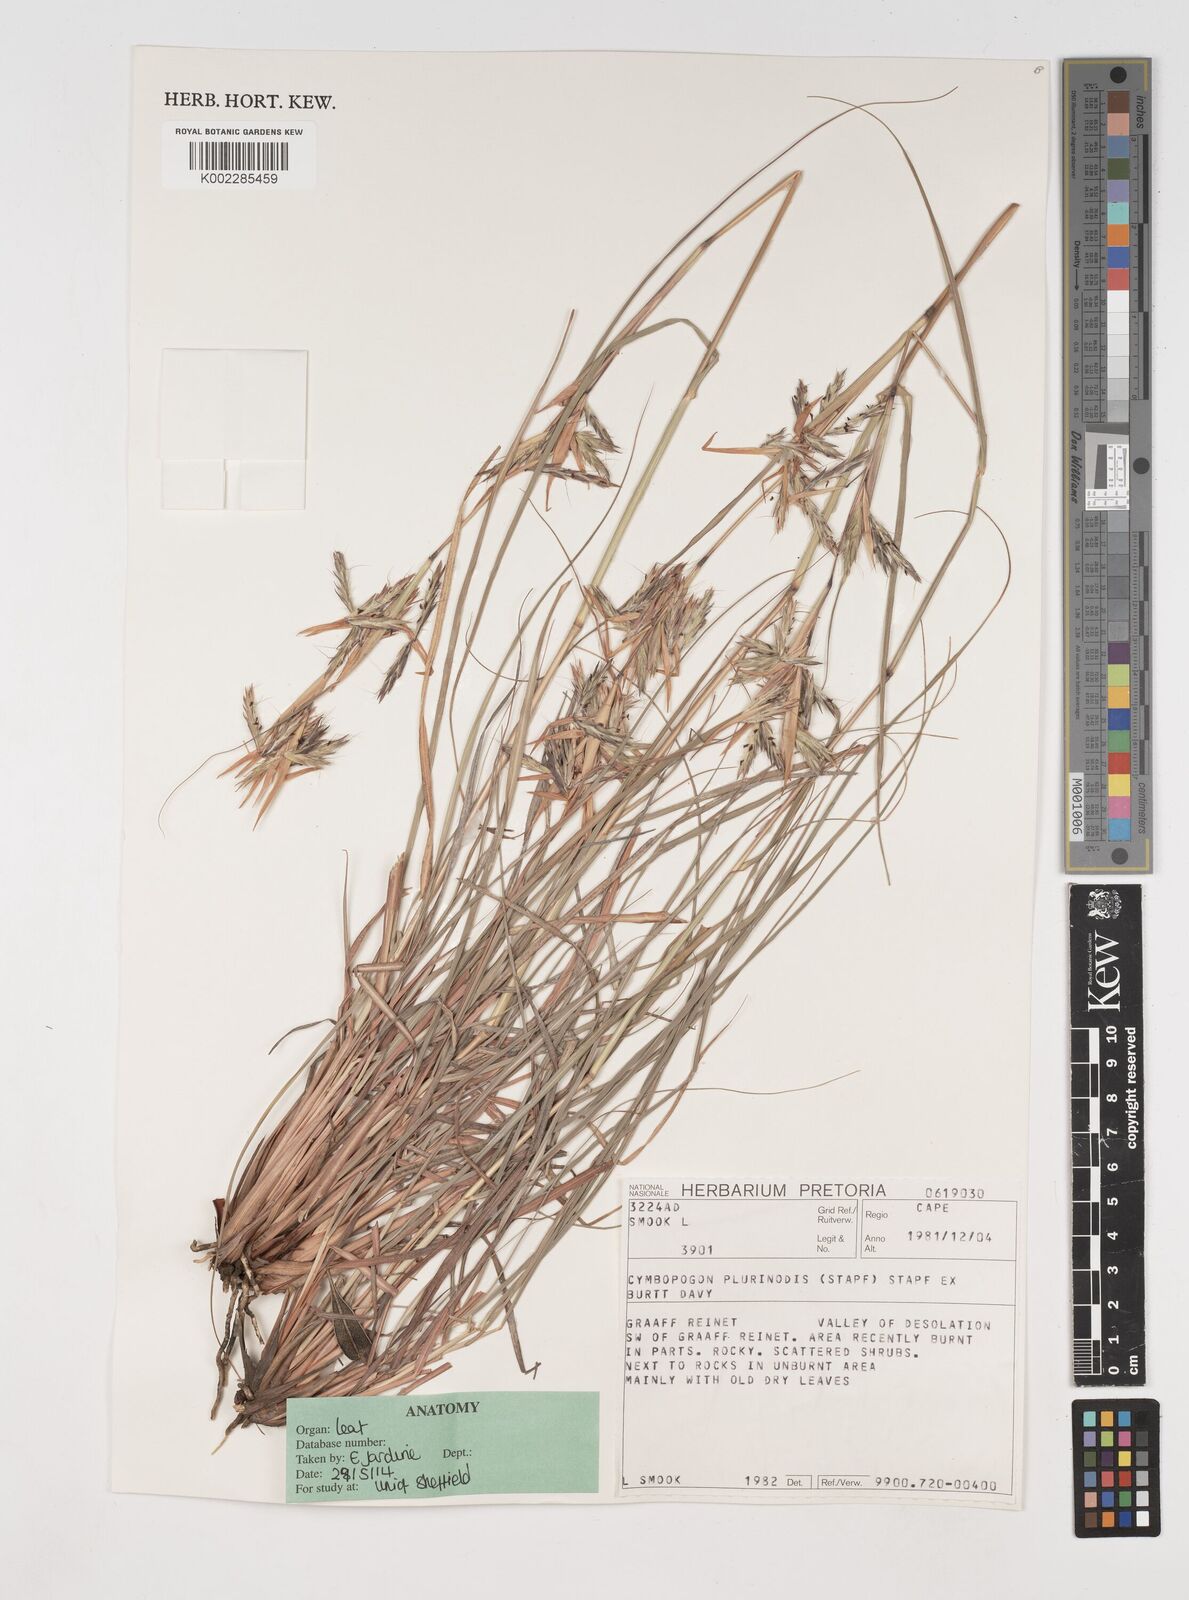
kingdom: Plantae
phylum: Tracheophyta
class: Liliopsida
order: Poales
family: Poaceae
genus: Cymbopogon
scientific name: Cymbopogon pospischilii
